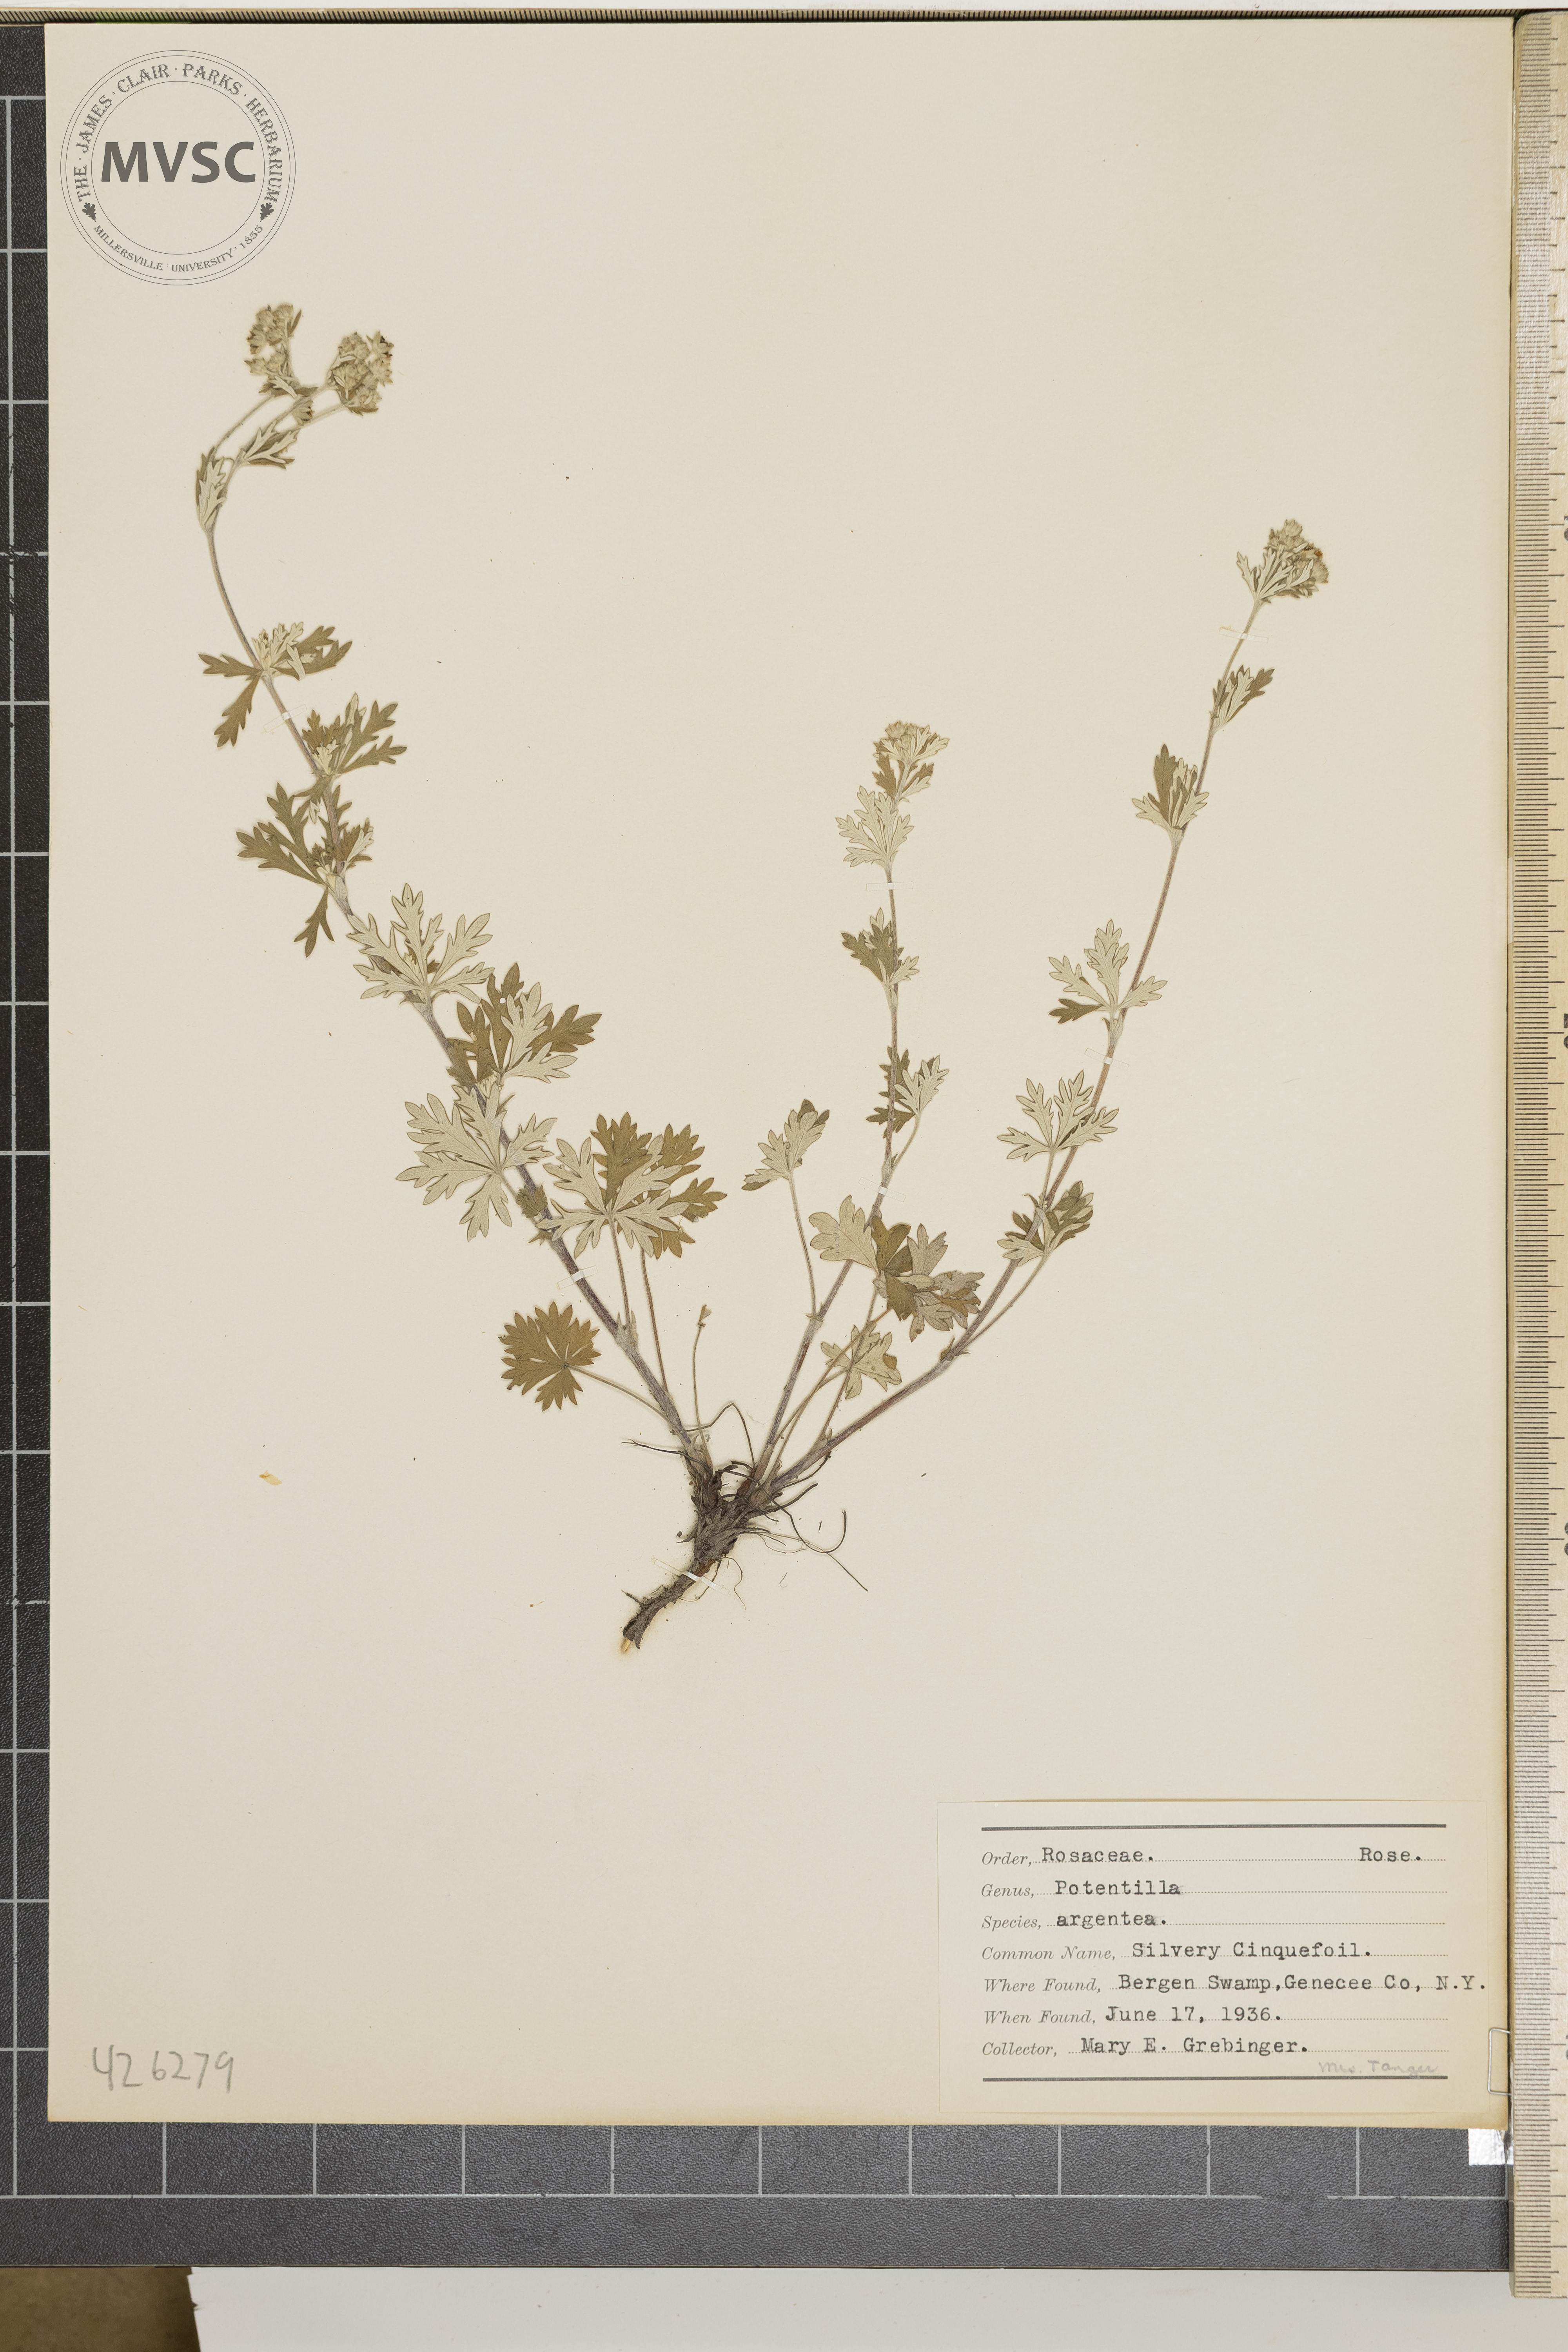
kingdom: Plantae
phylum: Tracheophyta
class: Magnoliopsida
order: Rosales
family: Rosaceae
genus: Potentilla
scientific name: Potentilla argentea
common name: Silvery Cinquefoil
